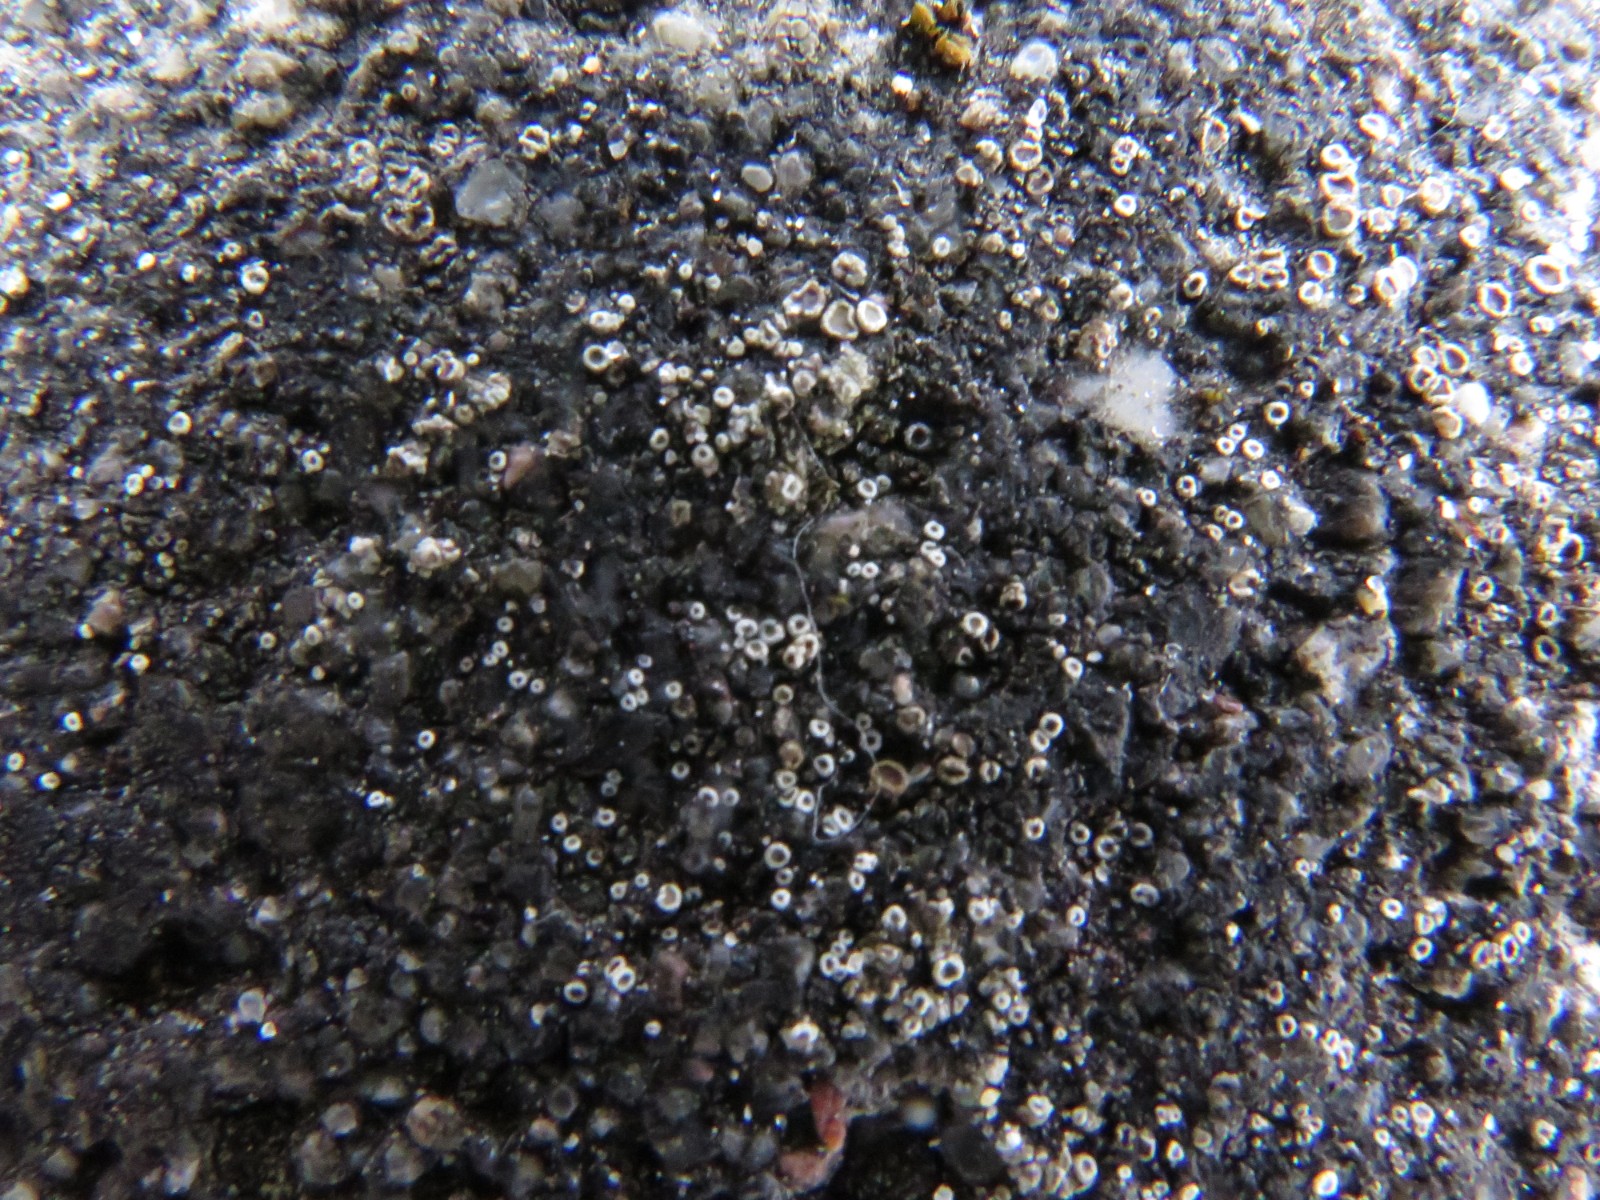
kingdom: Fungi
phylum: Ascomycota
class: Lecanoromycetes
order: Lecanorales
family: Lecanoraceae
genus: Myriolecis
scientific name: Myriolecis
